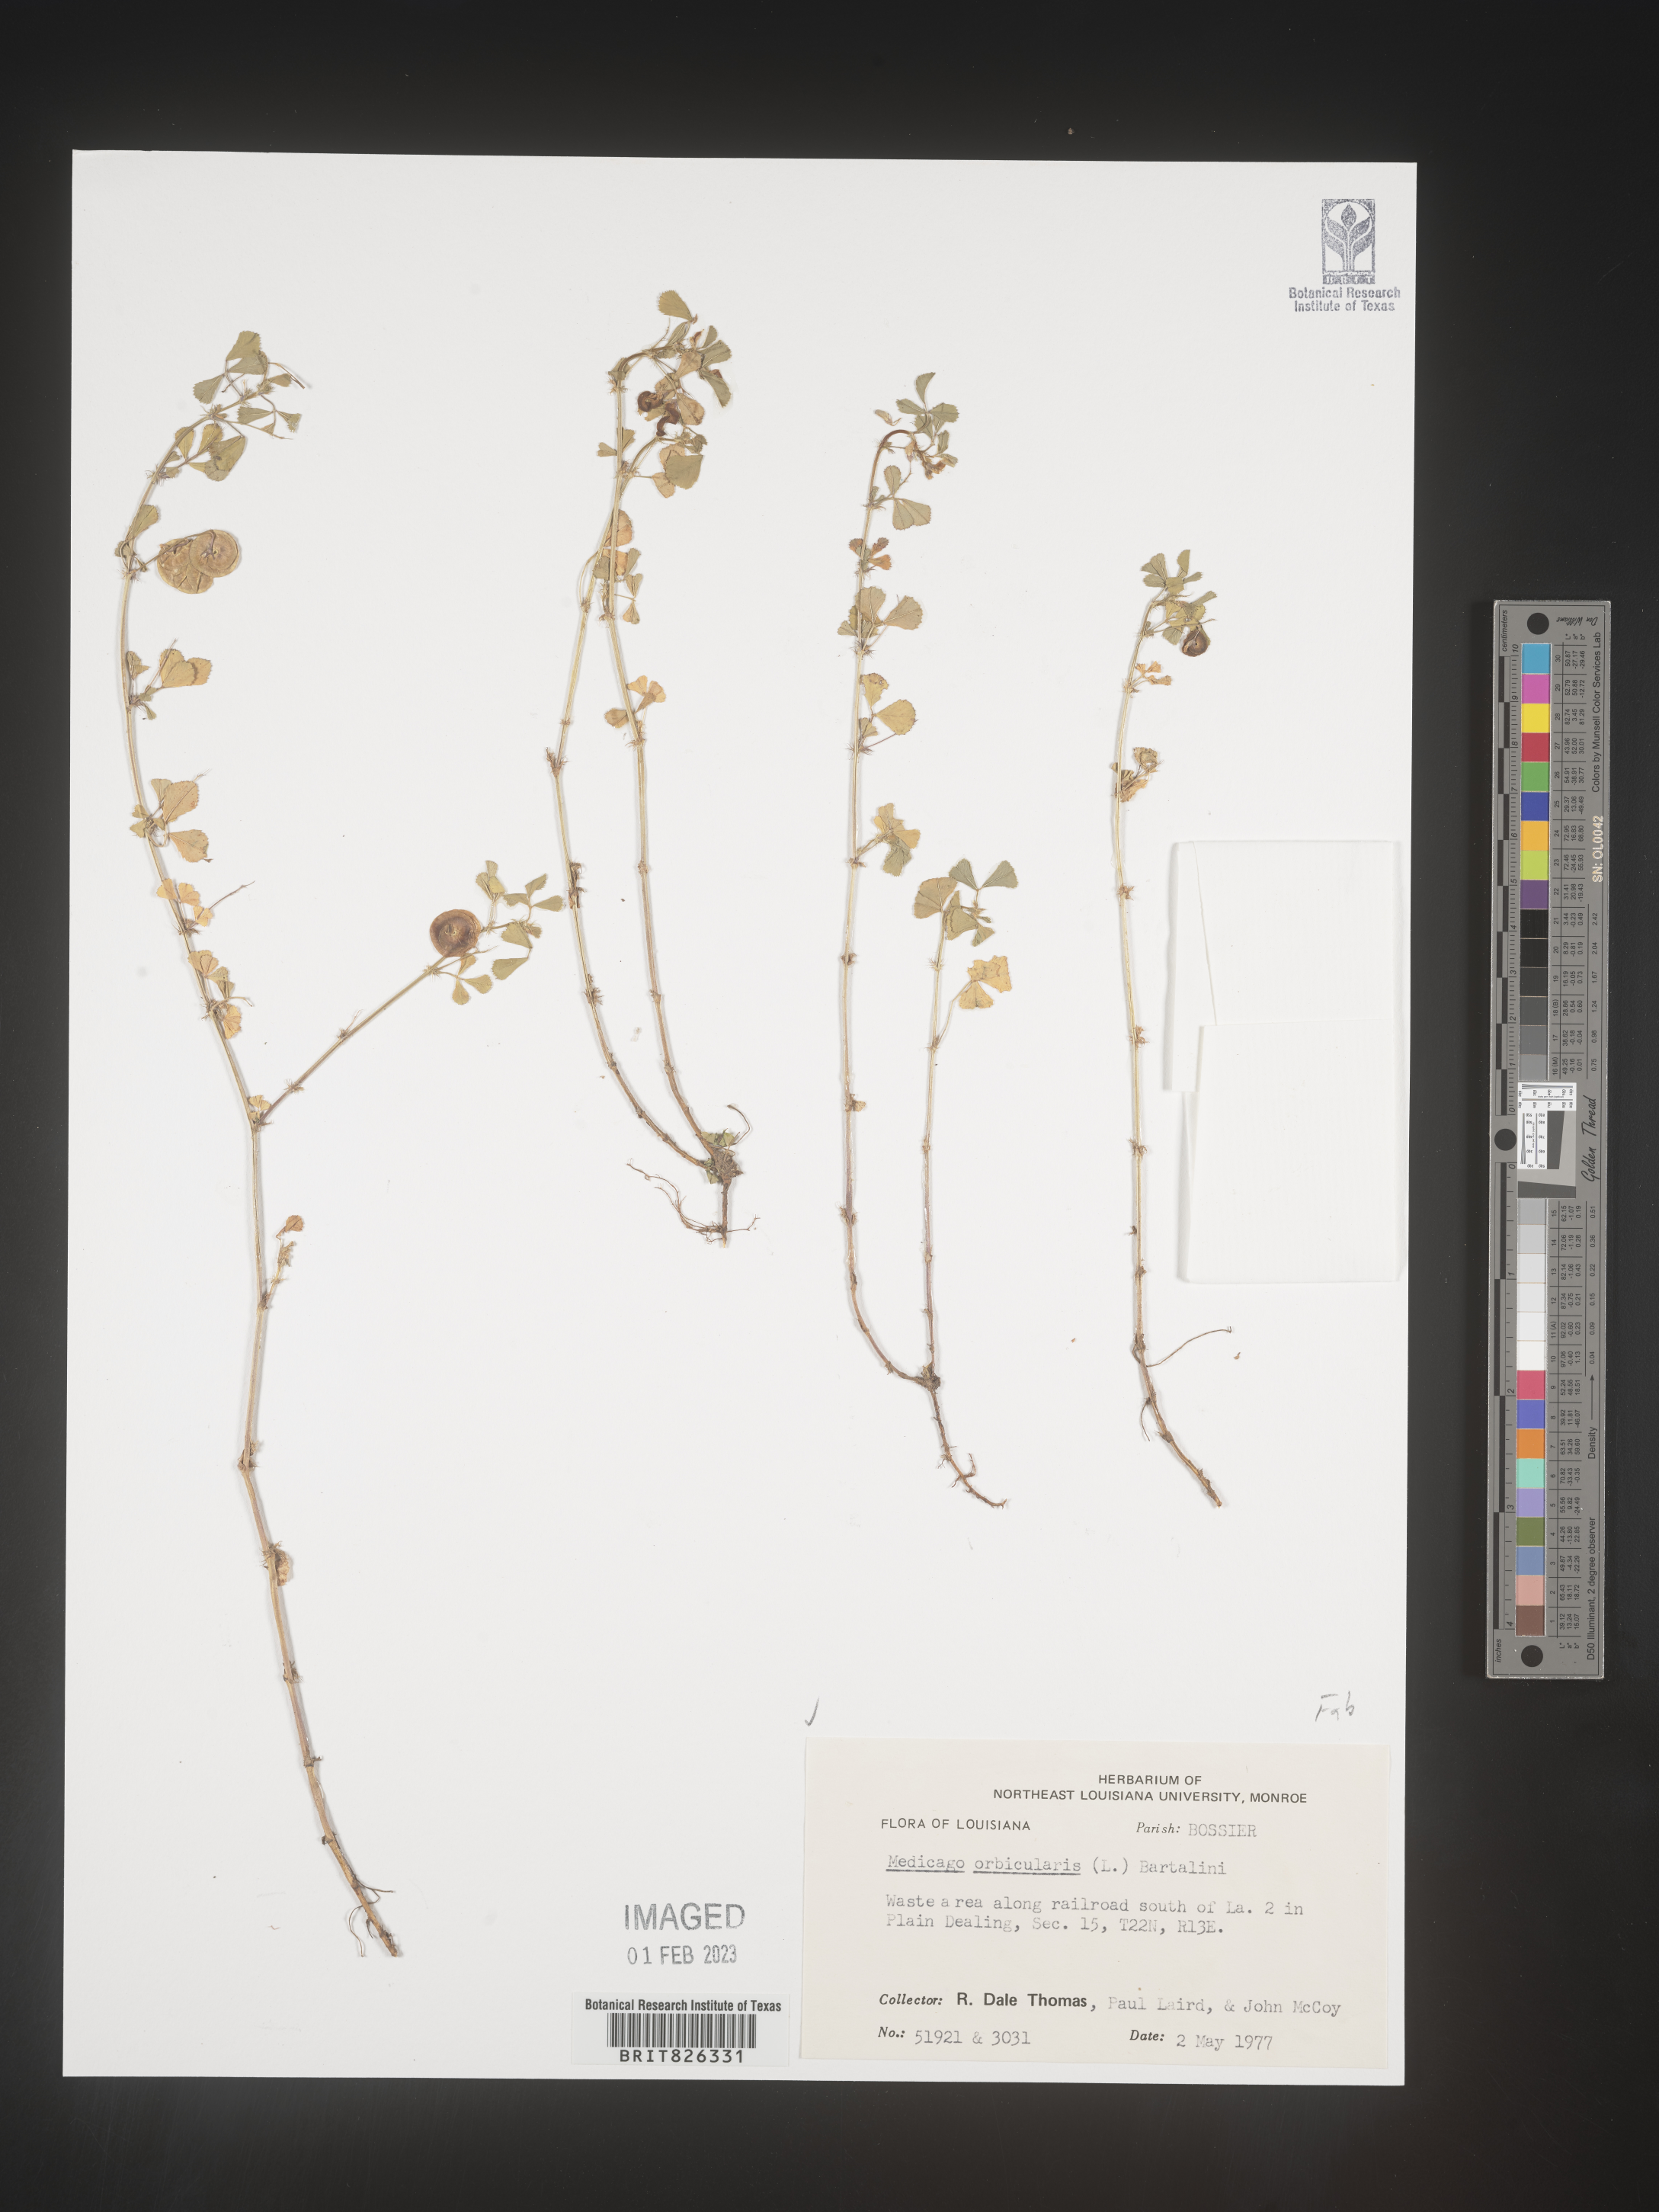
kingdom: Plantae
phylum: Tracheophyta
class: Magnoliopsida
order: Fabales
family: Fabaceae
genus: Medicago
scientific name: Medicago orbicularis
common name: Button medick
